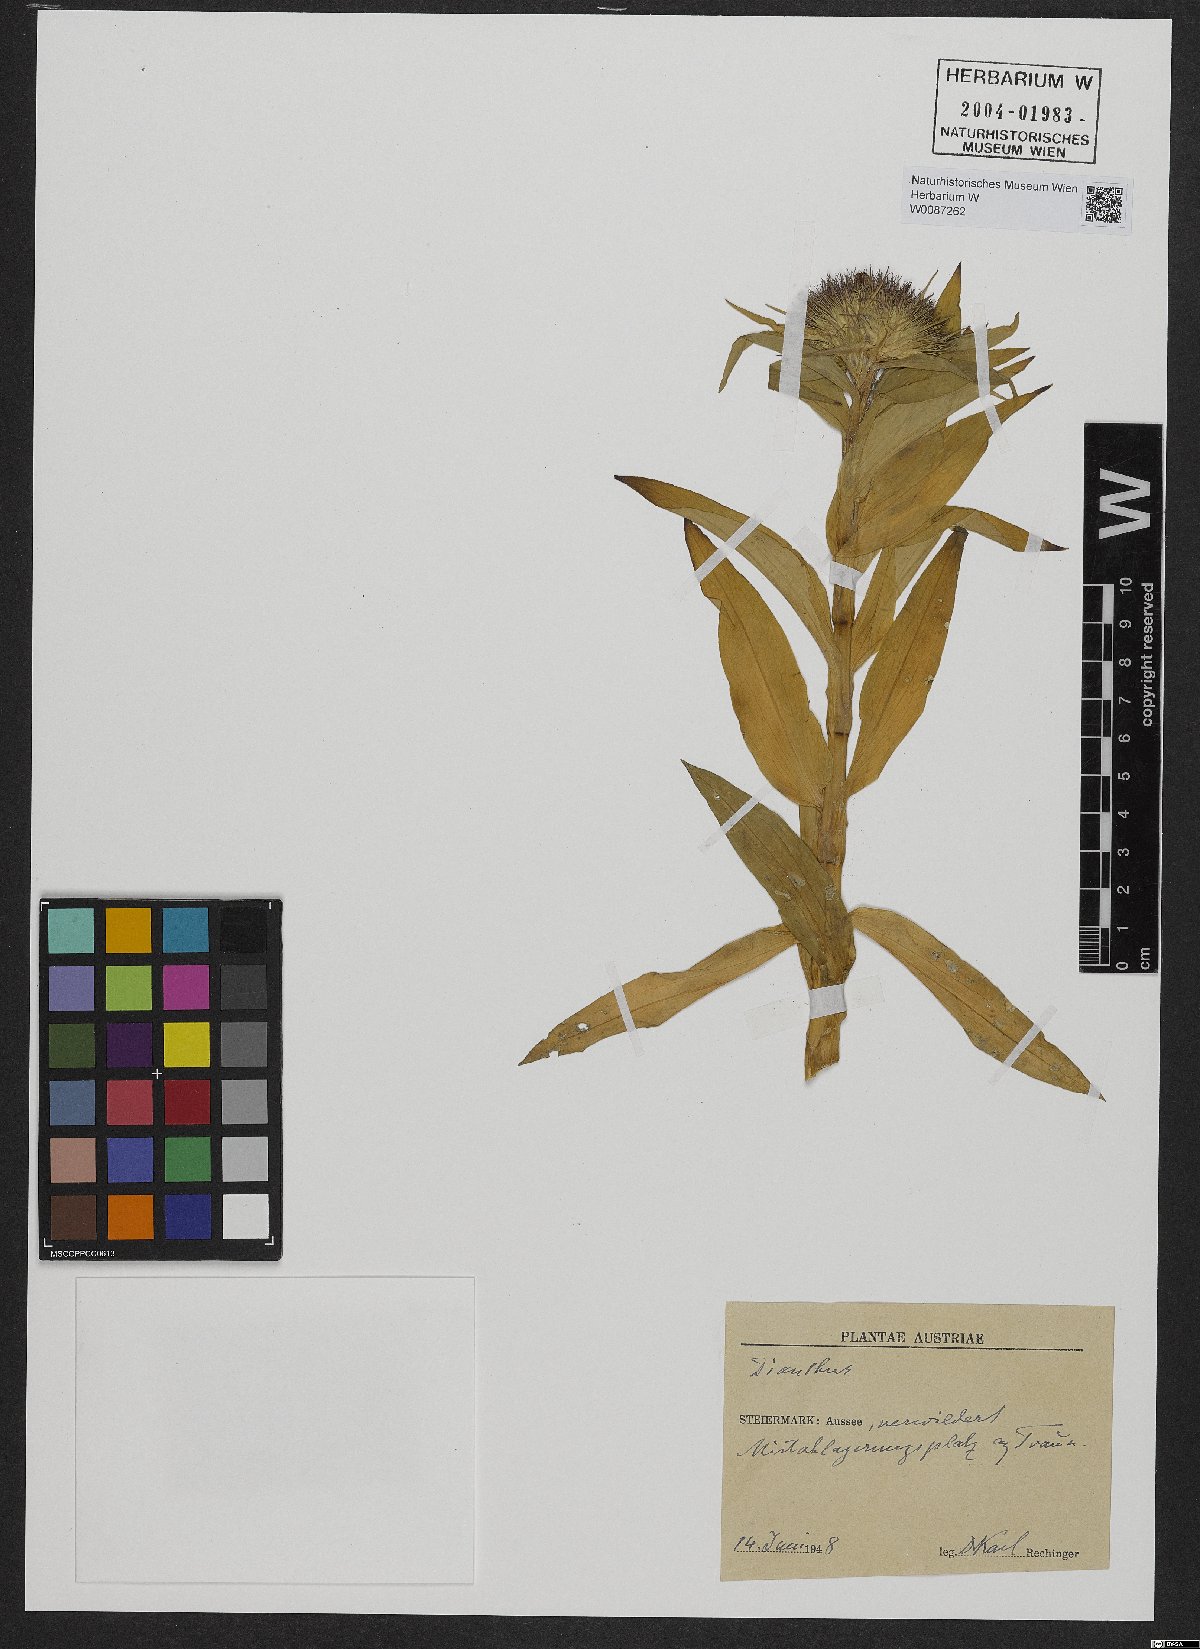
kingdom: Plantae
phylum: Tracheophyta
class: Magnoliopsida
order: Caryophyllales
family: Caryophyllaceae
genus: Dianthus
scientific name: Dianthus barbatus
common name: Sweet-william
